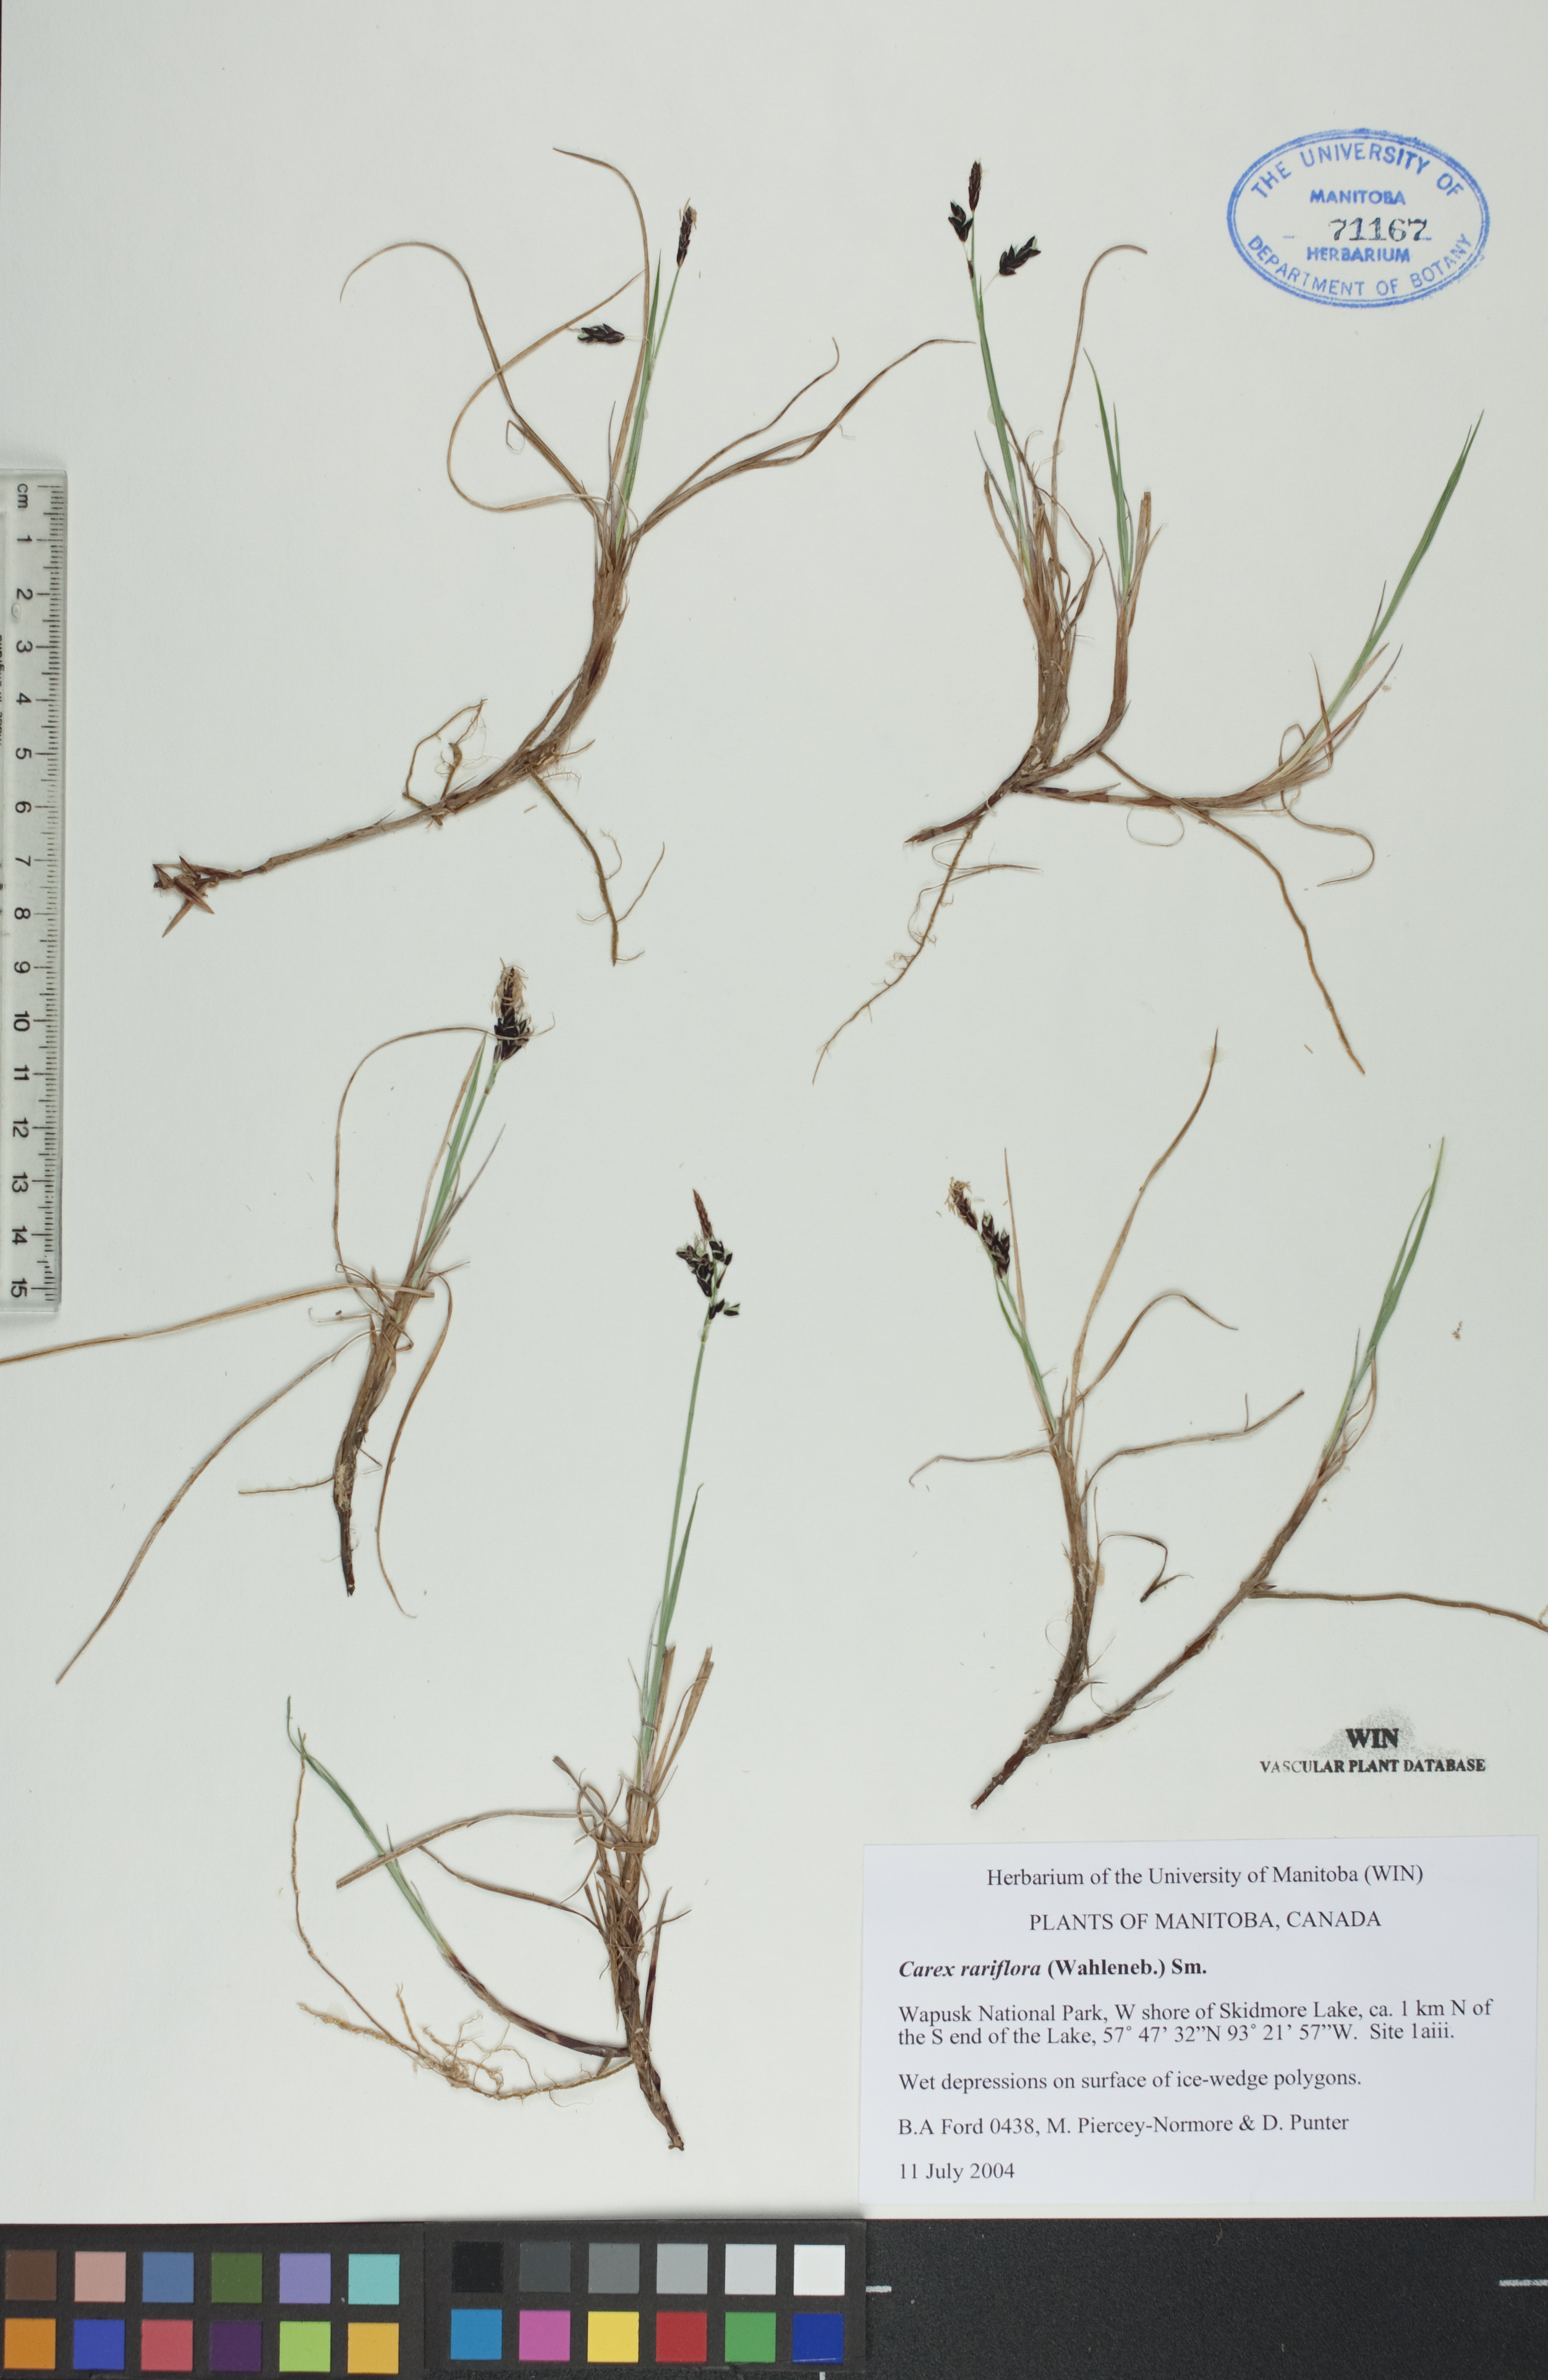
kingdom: Plantae
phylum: Tracheophyta
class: Liliopsida
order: Poales
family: Cyperaceae
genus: Carex
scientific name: Carex rariflora
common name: Loose-flowered alpine sedge
